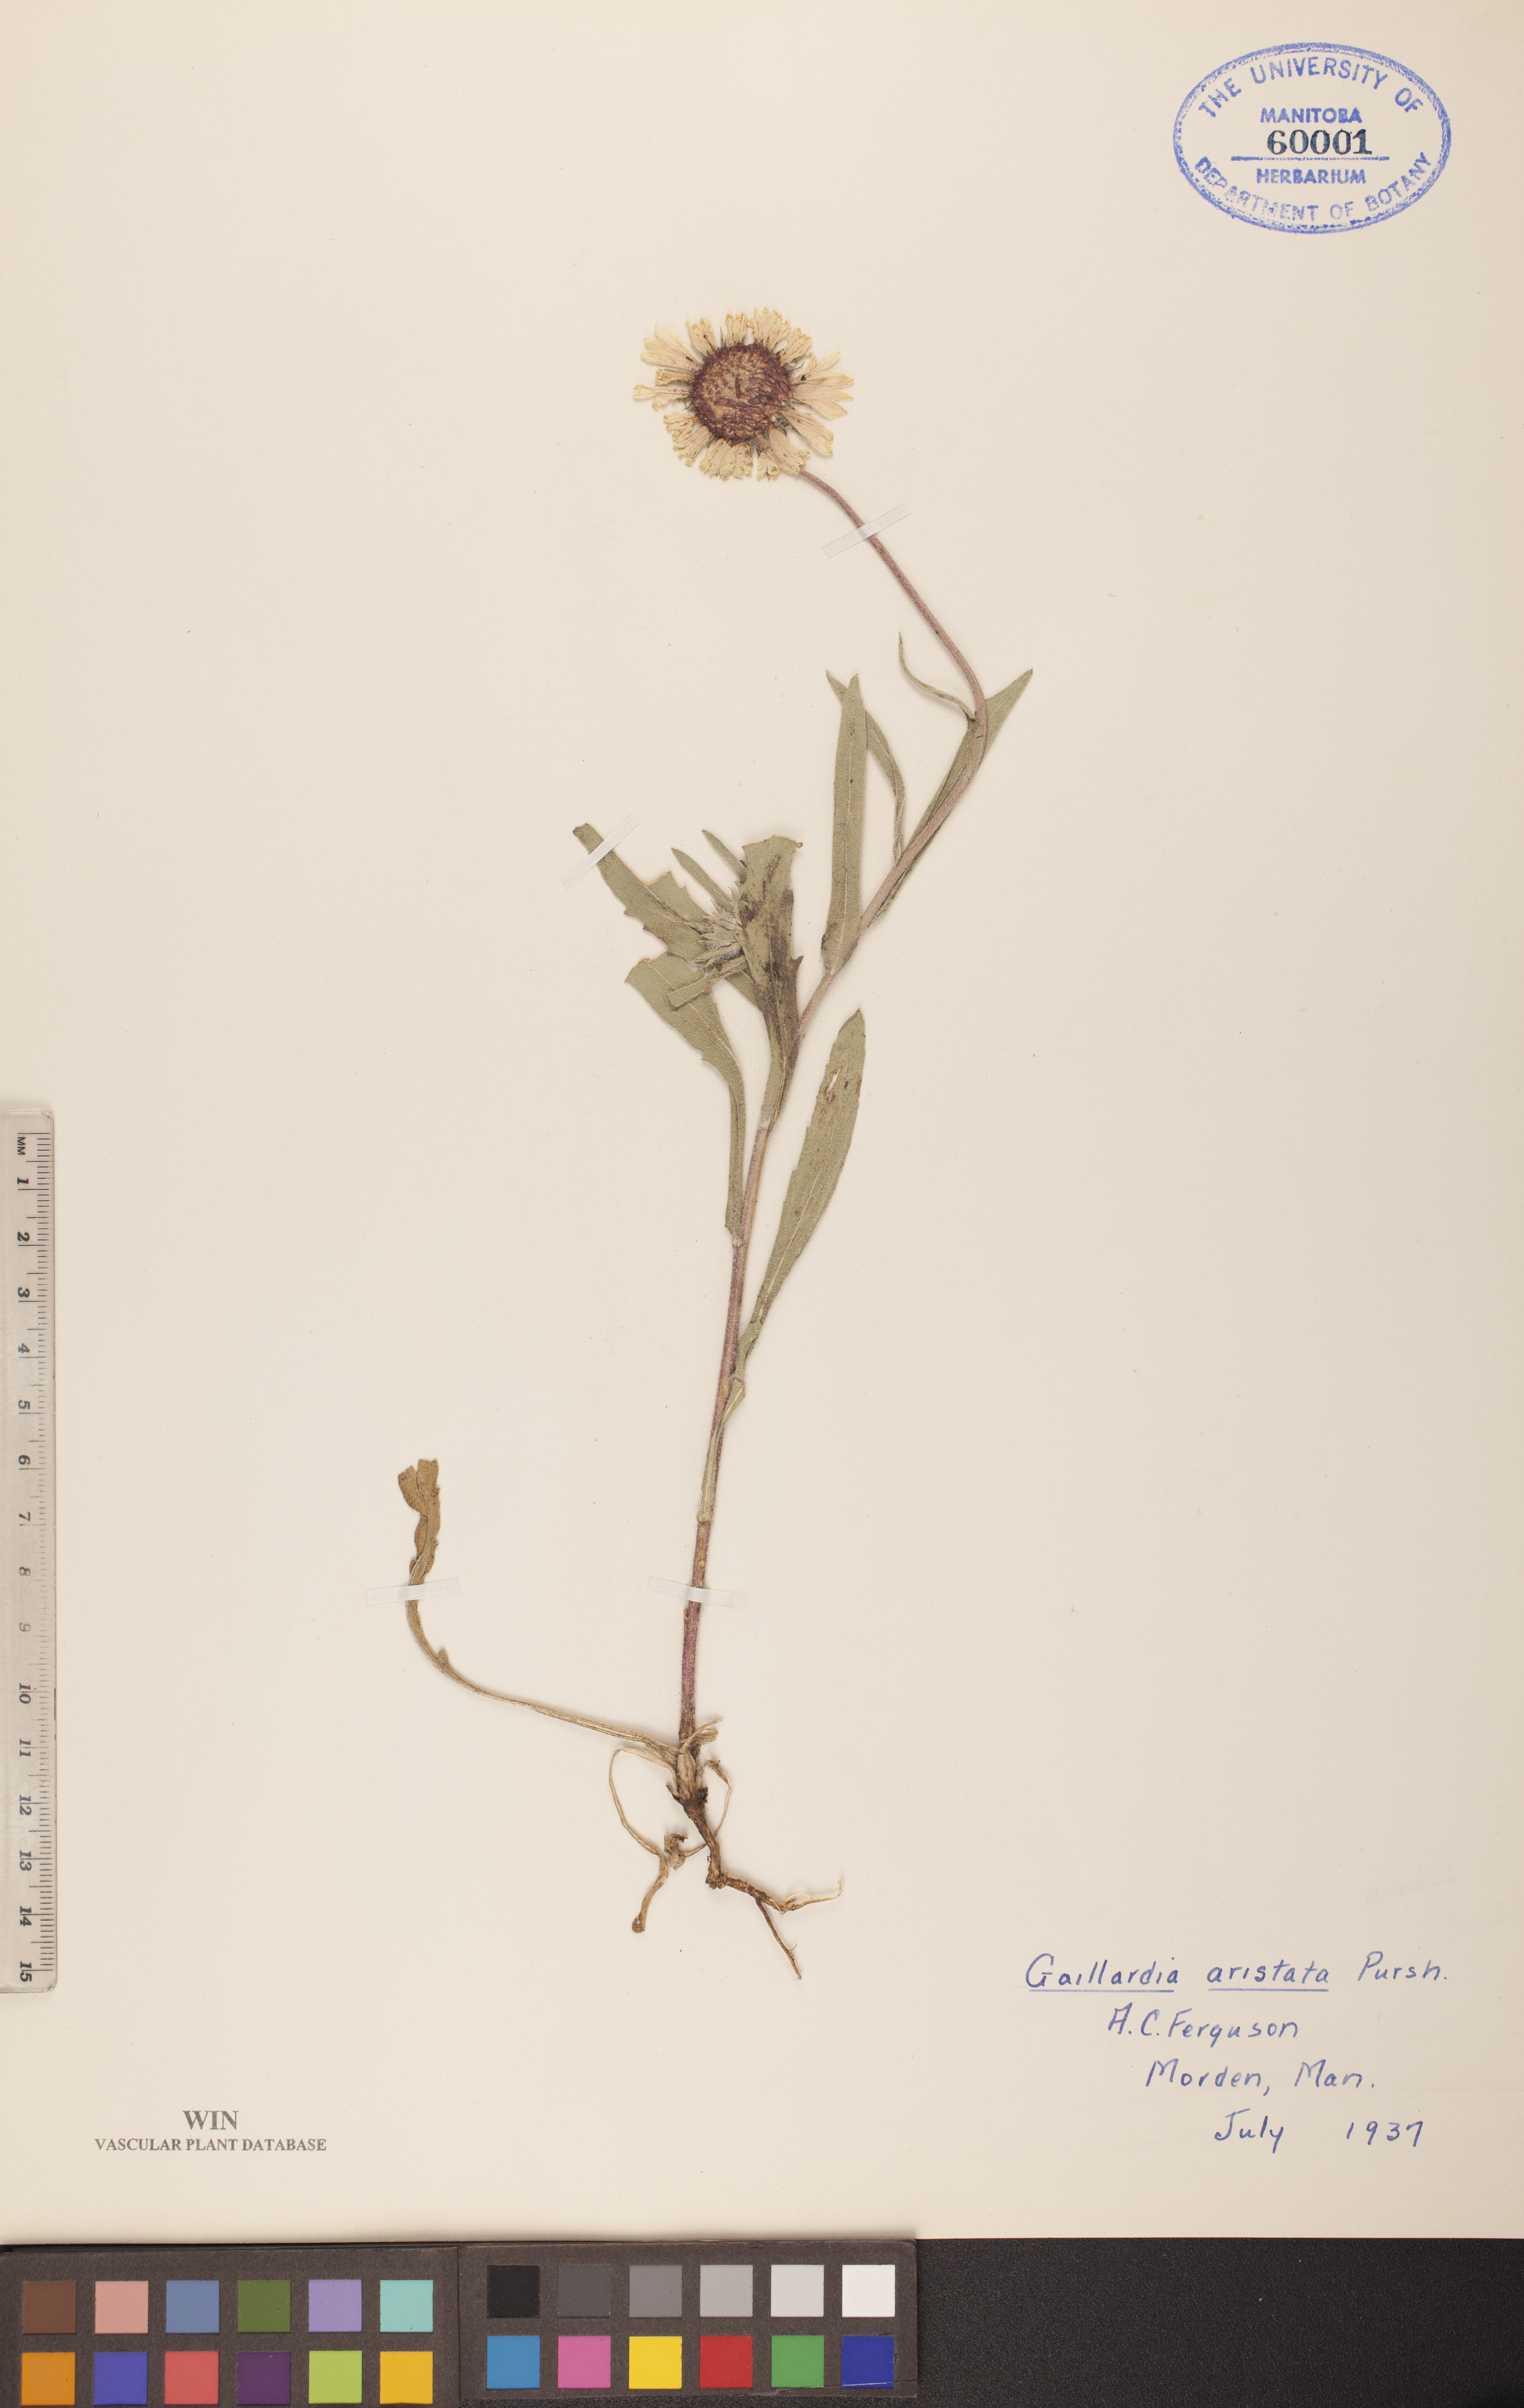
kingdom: Plantae
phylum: Tracheophyta
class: Magnoliopsida
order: Asterales
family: Asteraceae
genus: Gaillardia
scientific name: Gaillardia aristata
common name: Blanket-flower
